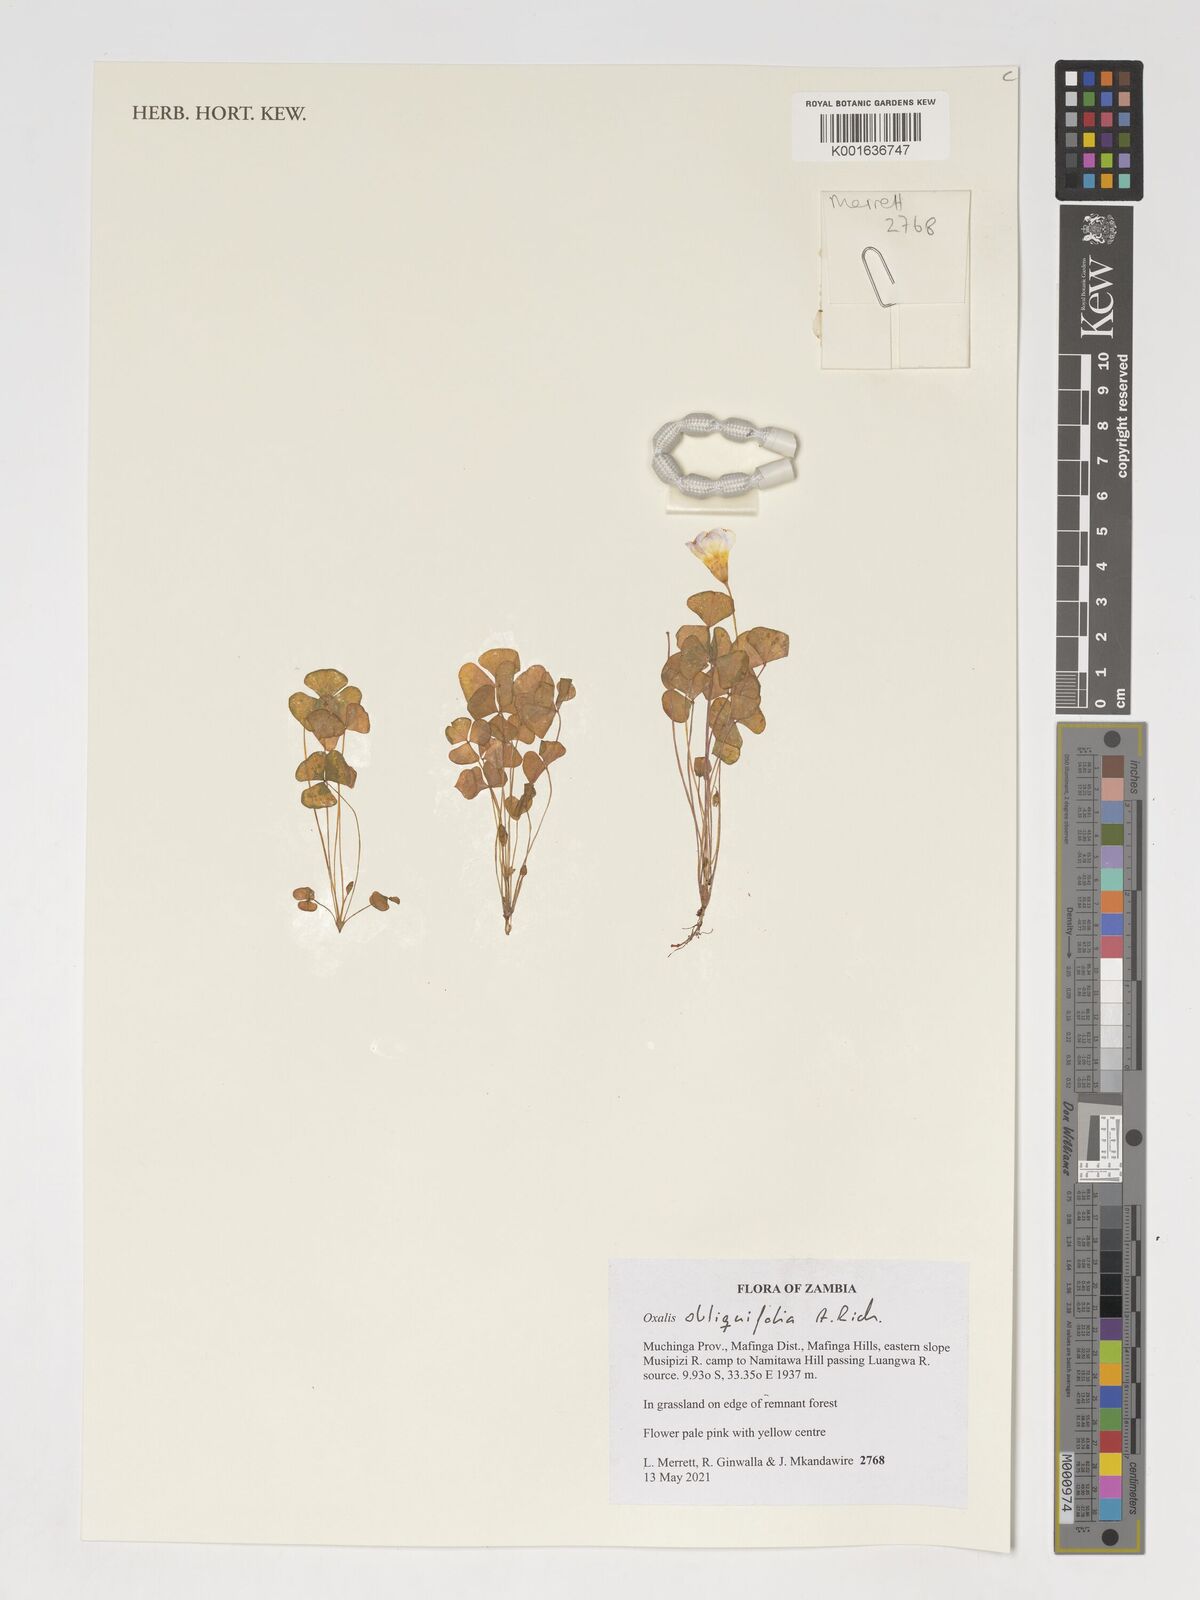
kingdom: Plantae
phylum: Tracheophyta
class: Magnoliopsida
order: Oxalidales
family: Oxalidaceae
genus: Oxalis
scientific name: Oxalis obliquifolia
